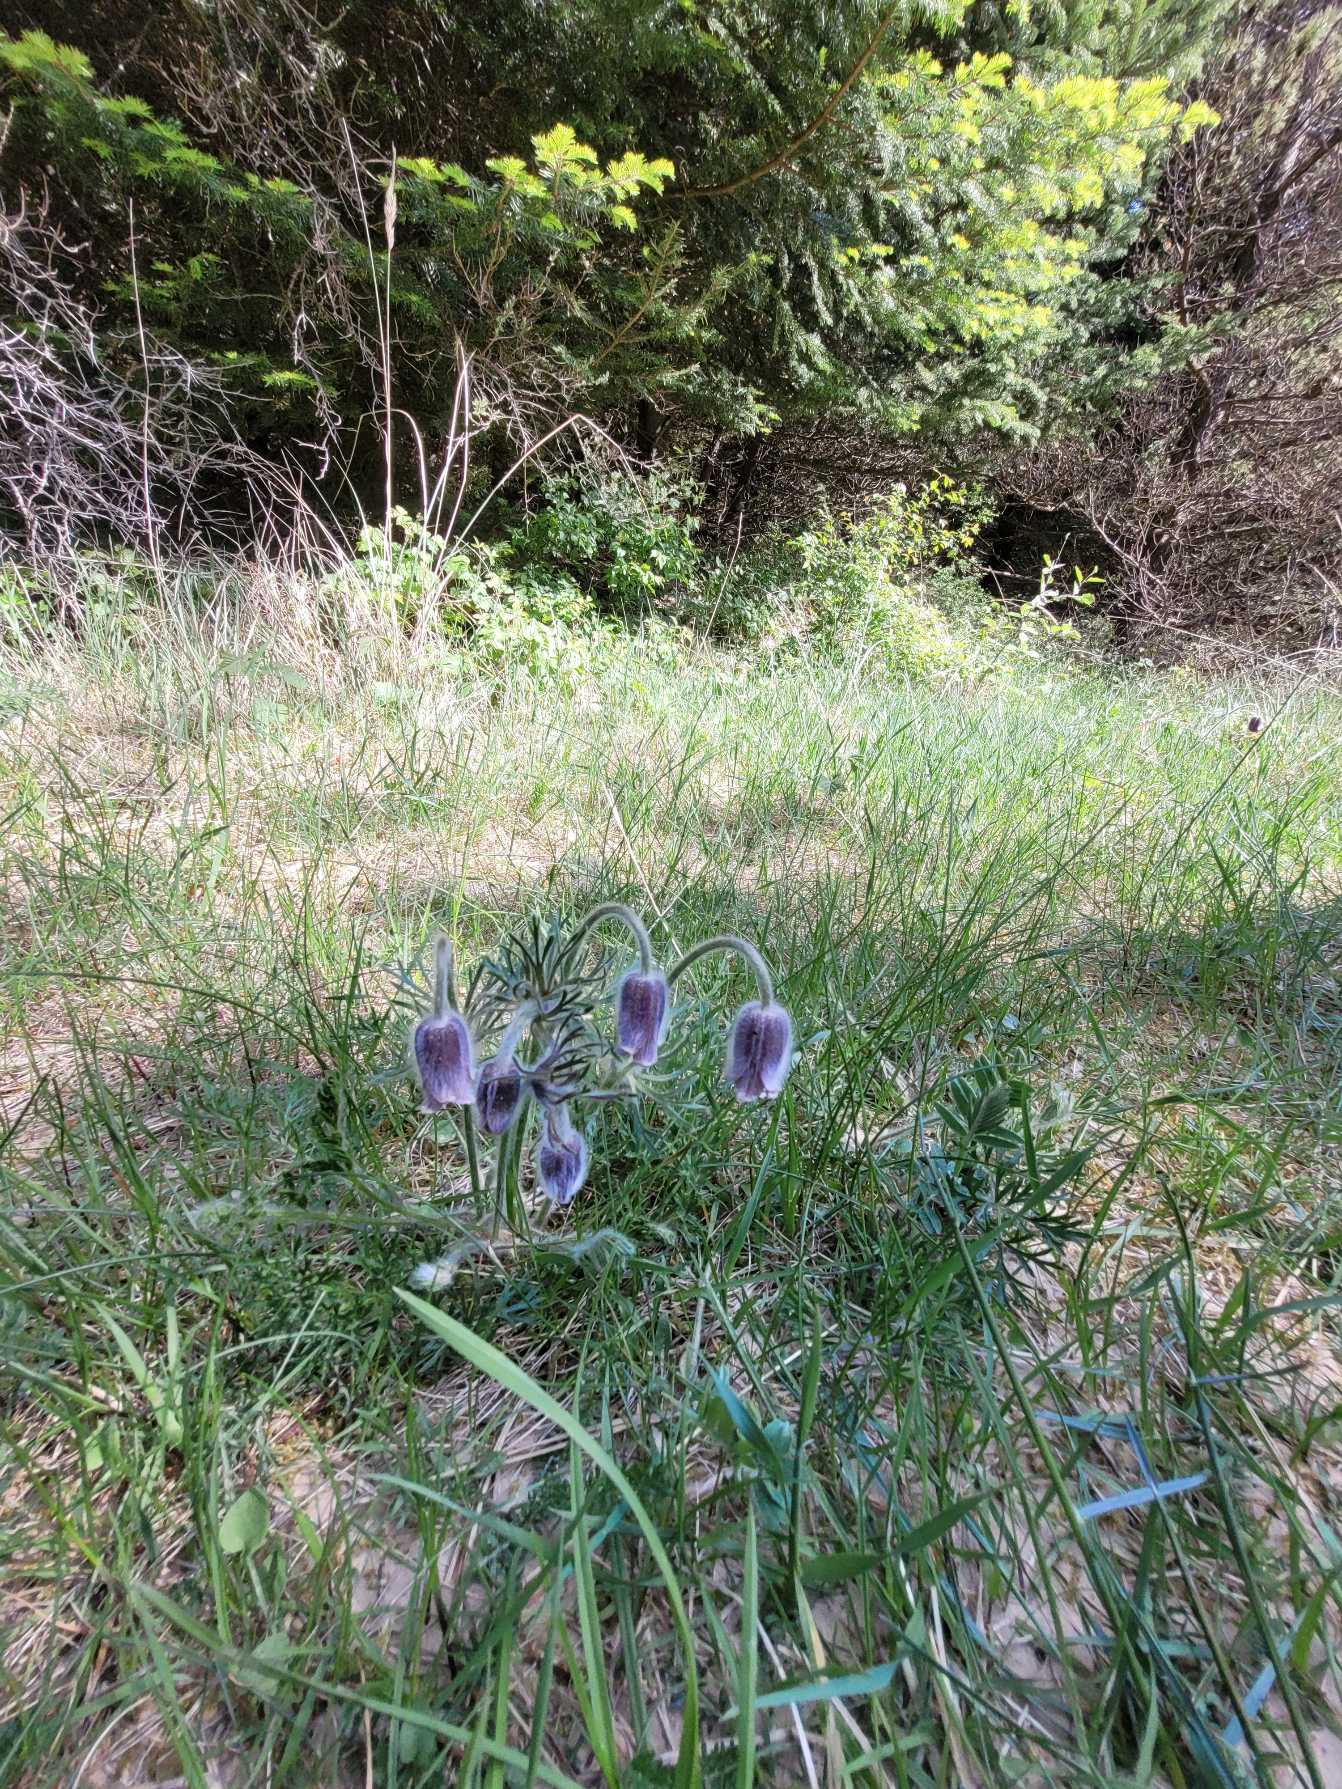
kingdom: Plantae
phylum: Tracheophyta
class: Magnoliopsida
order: Ranunculales
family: Ranunculaceae
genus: Pulsatilla
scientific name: Pulsatilla pratensis
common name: Nikkende kobjælde
